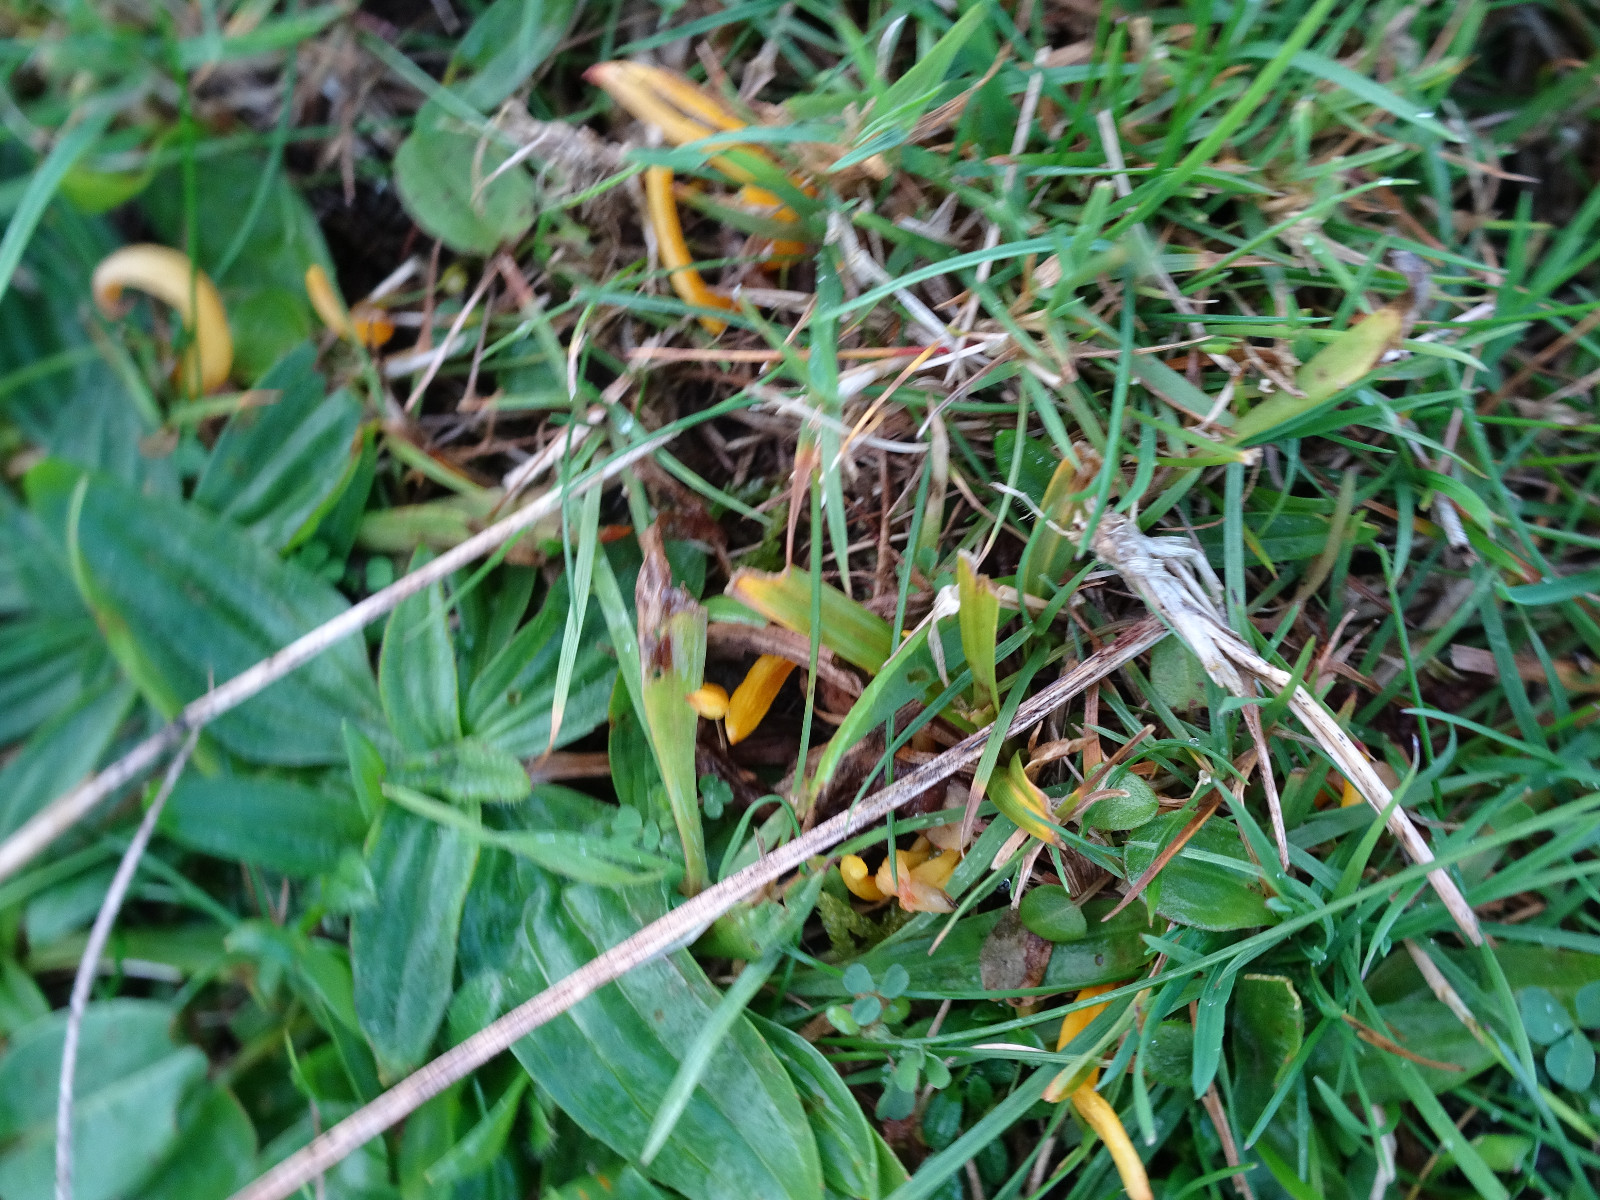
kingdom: Fungi
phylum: Basidiomycota
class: Agaricomycetes
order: Agaricales
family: Clavariaceae
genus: Clavulinopsis
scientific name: Clavulinopsis
